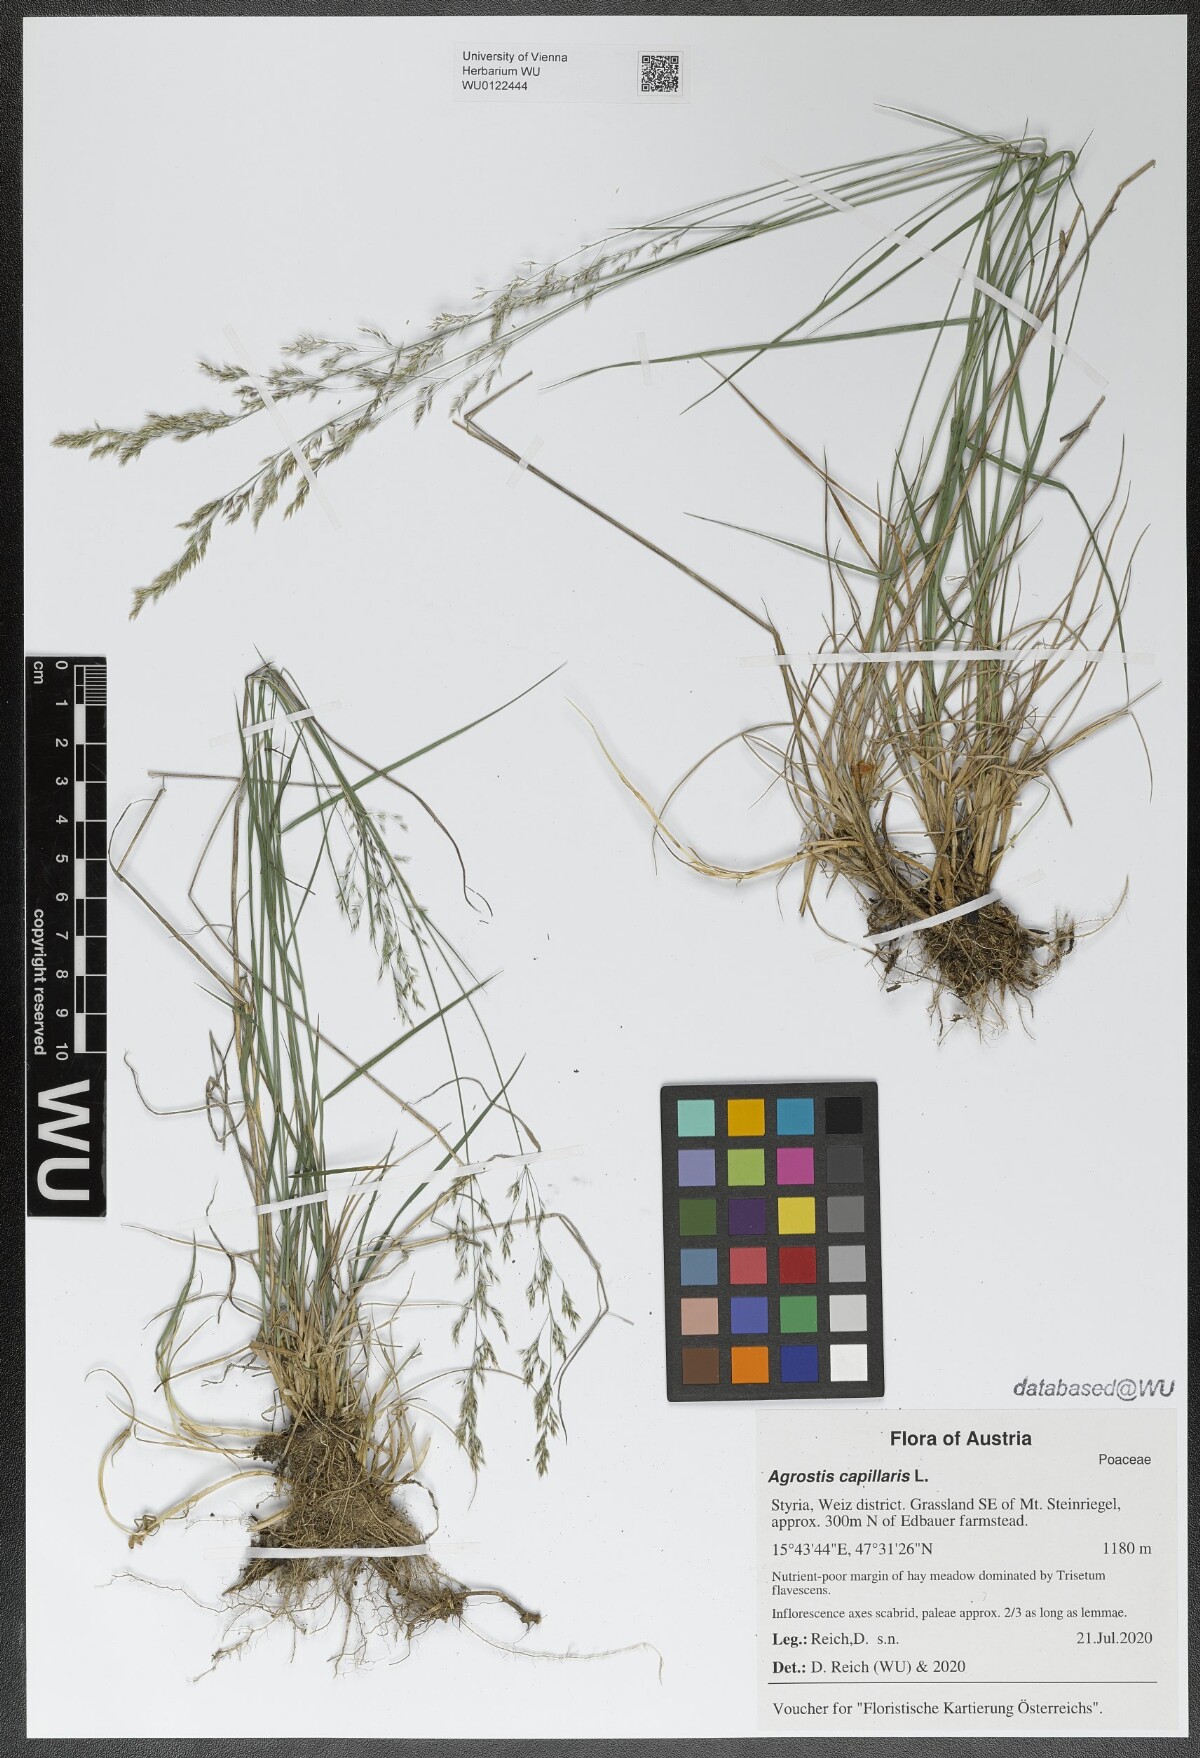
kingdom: Plantae
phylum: Tracheophyta
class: Liliopsida
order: Poales
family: Poaceae
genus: Agrostis
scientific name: Agrostis capillaris
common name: Colonial bentgrass
